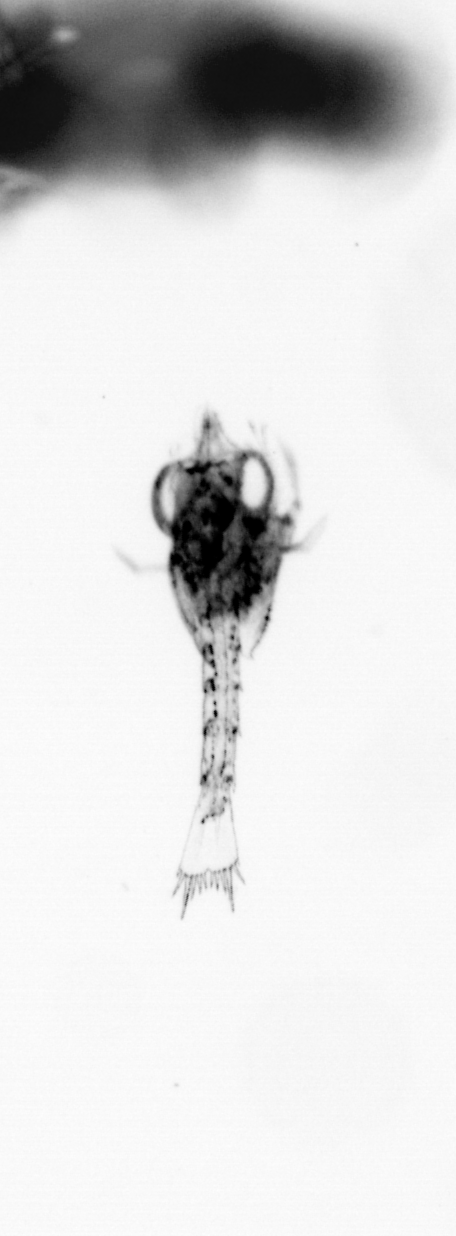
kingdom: Animalia
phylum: Arthropoda
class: Malacostraca
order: Decapoda
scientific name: Decapoda
